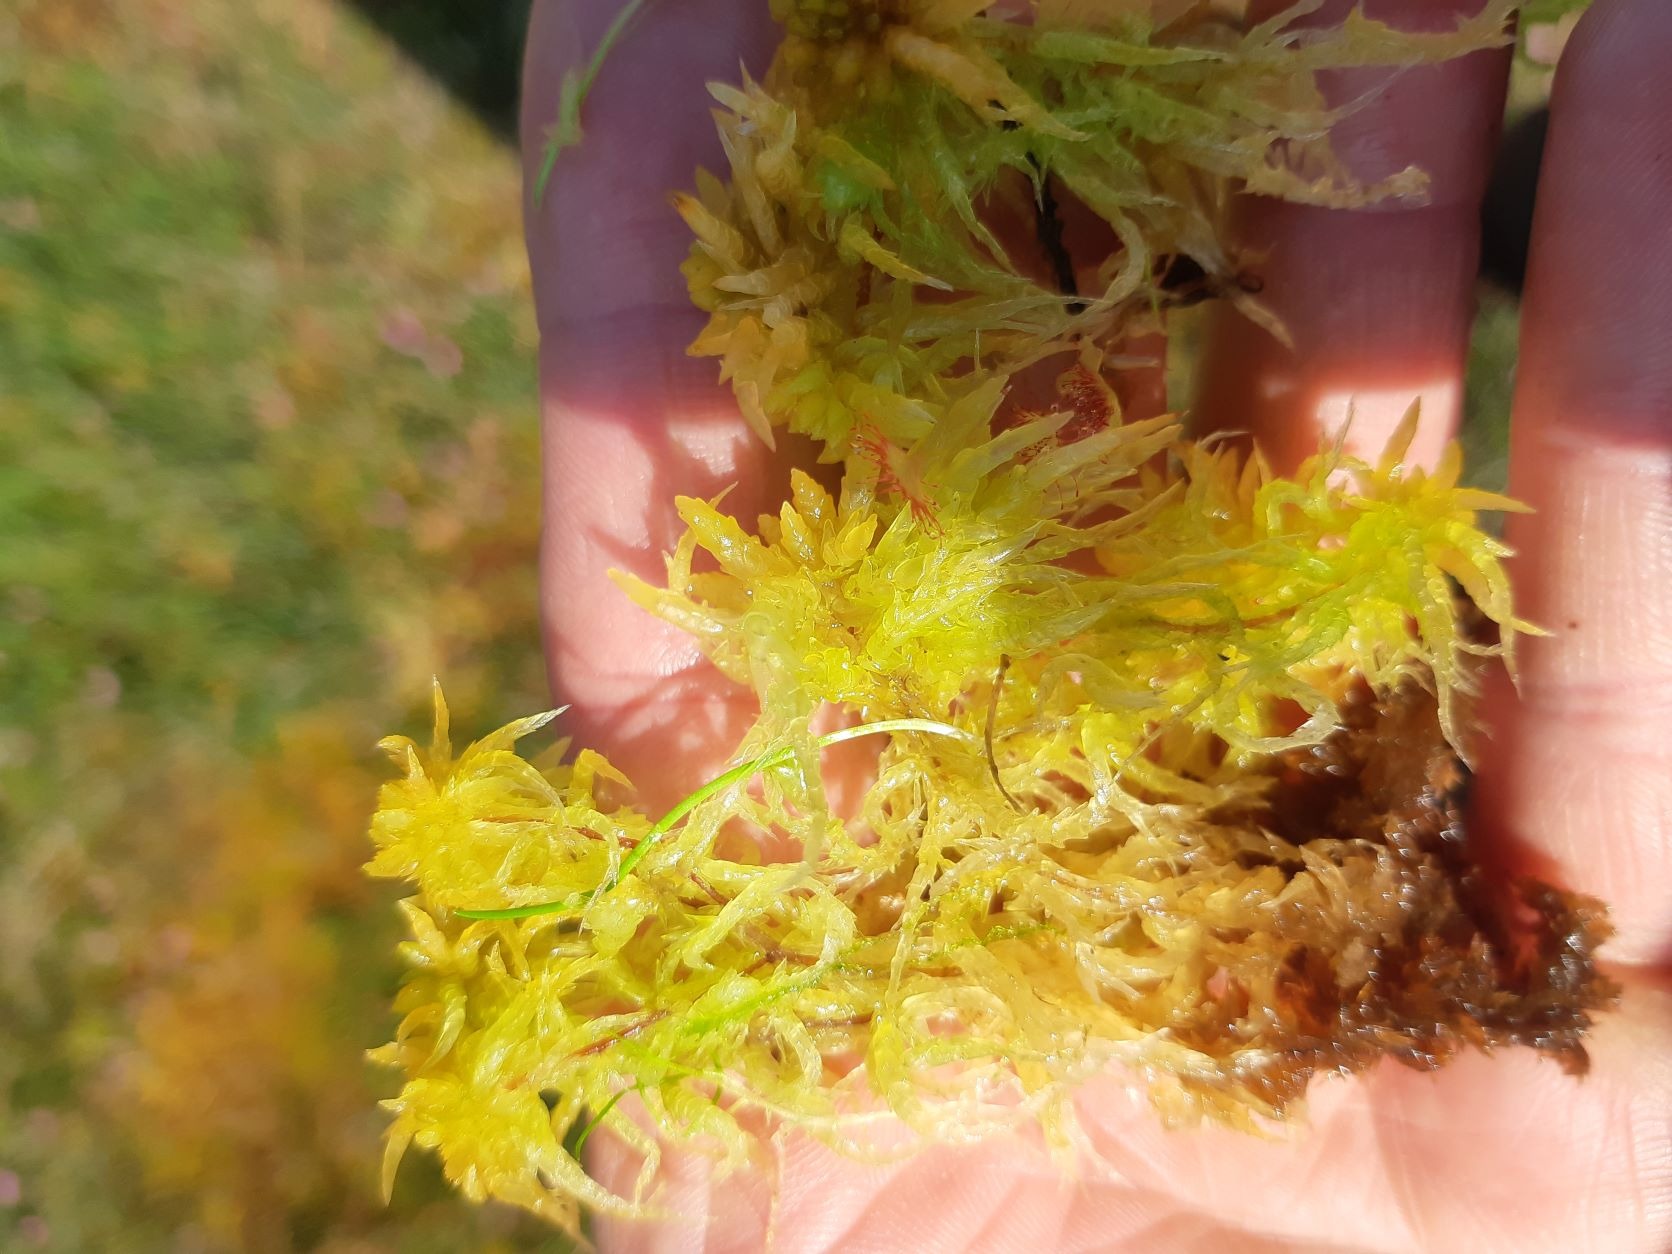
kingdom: Plantae
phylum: Bryophyta
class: Sphagnopsida
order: Sphagnales
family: Sphagnaceae
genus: Sphagnum
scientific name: Sphagnum
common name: Tørvemosslægten
